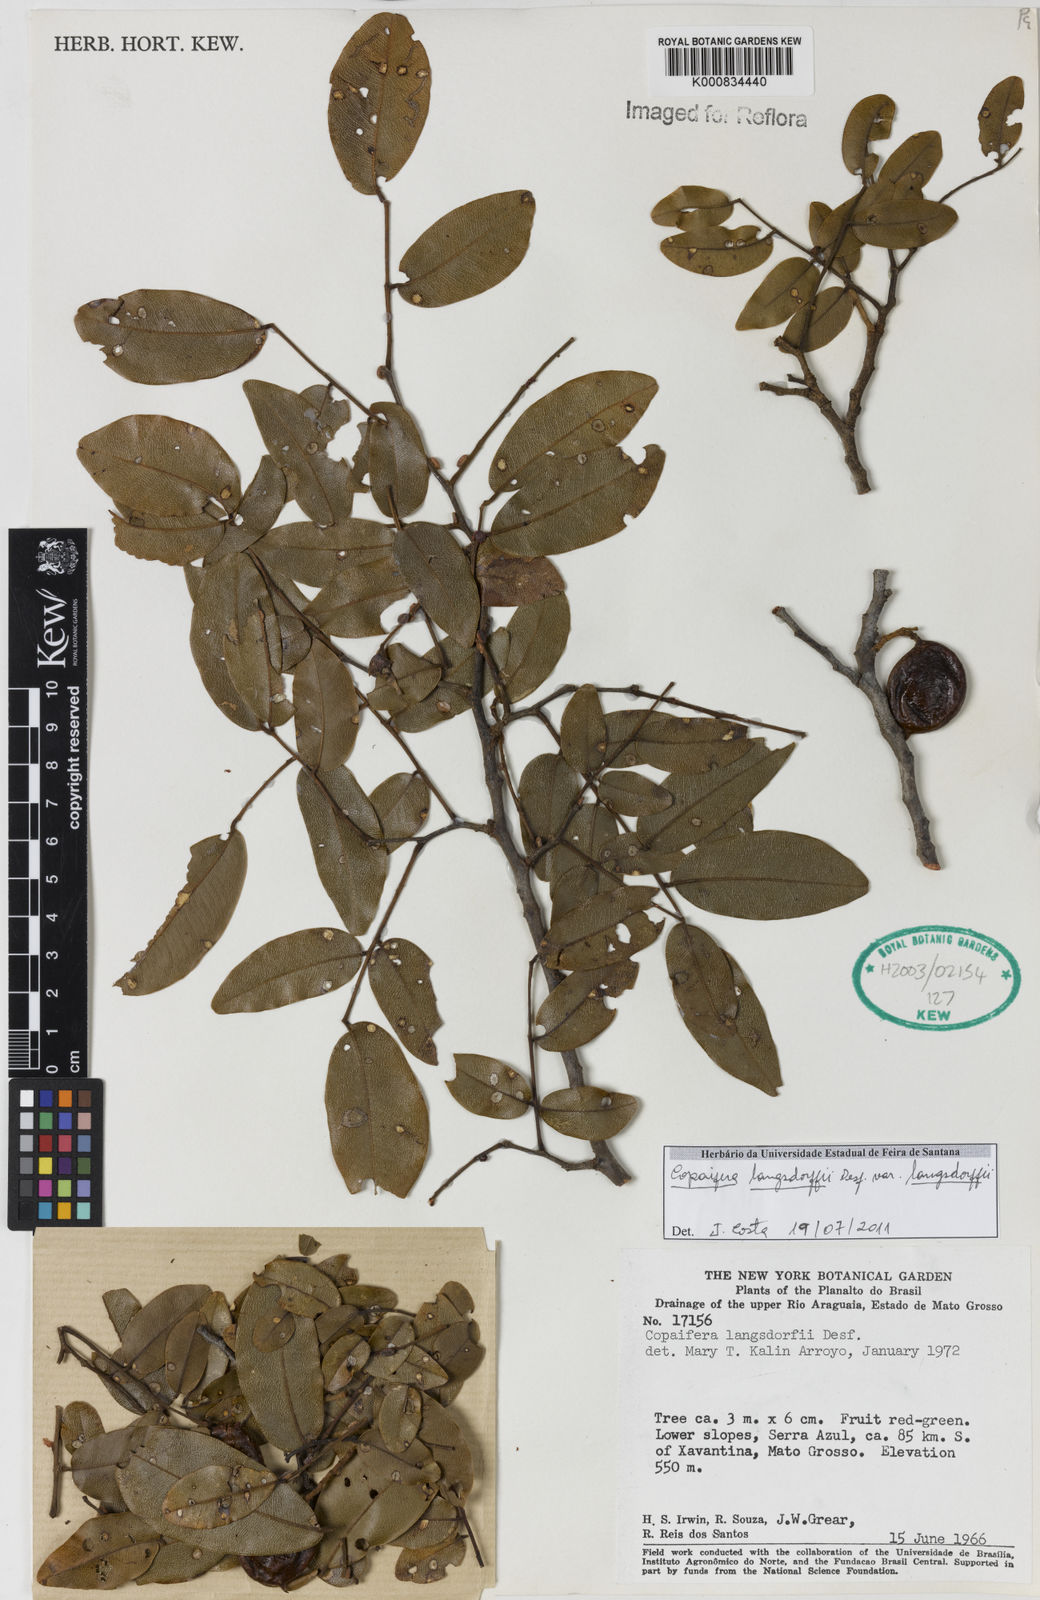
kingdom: Plantae
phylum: Tracheophyta
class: Magnoliopsida
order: Fabales
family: Fabaceae
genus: Copaifera
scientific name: Copaifera langsdorffii
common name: Brazilian diesel tree
